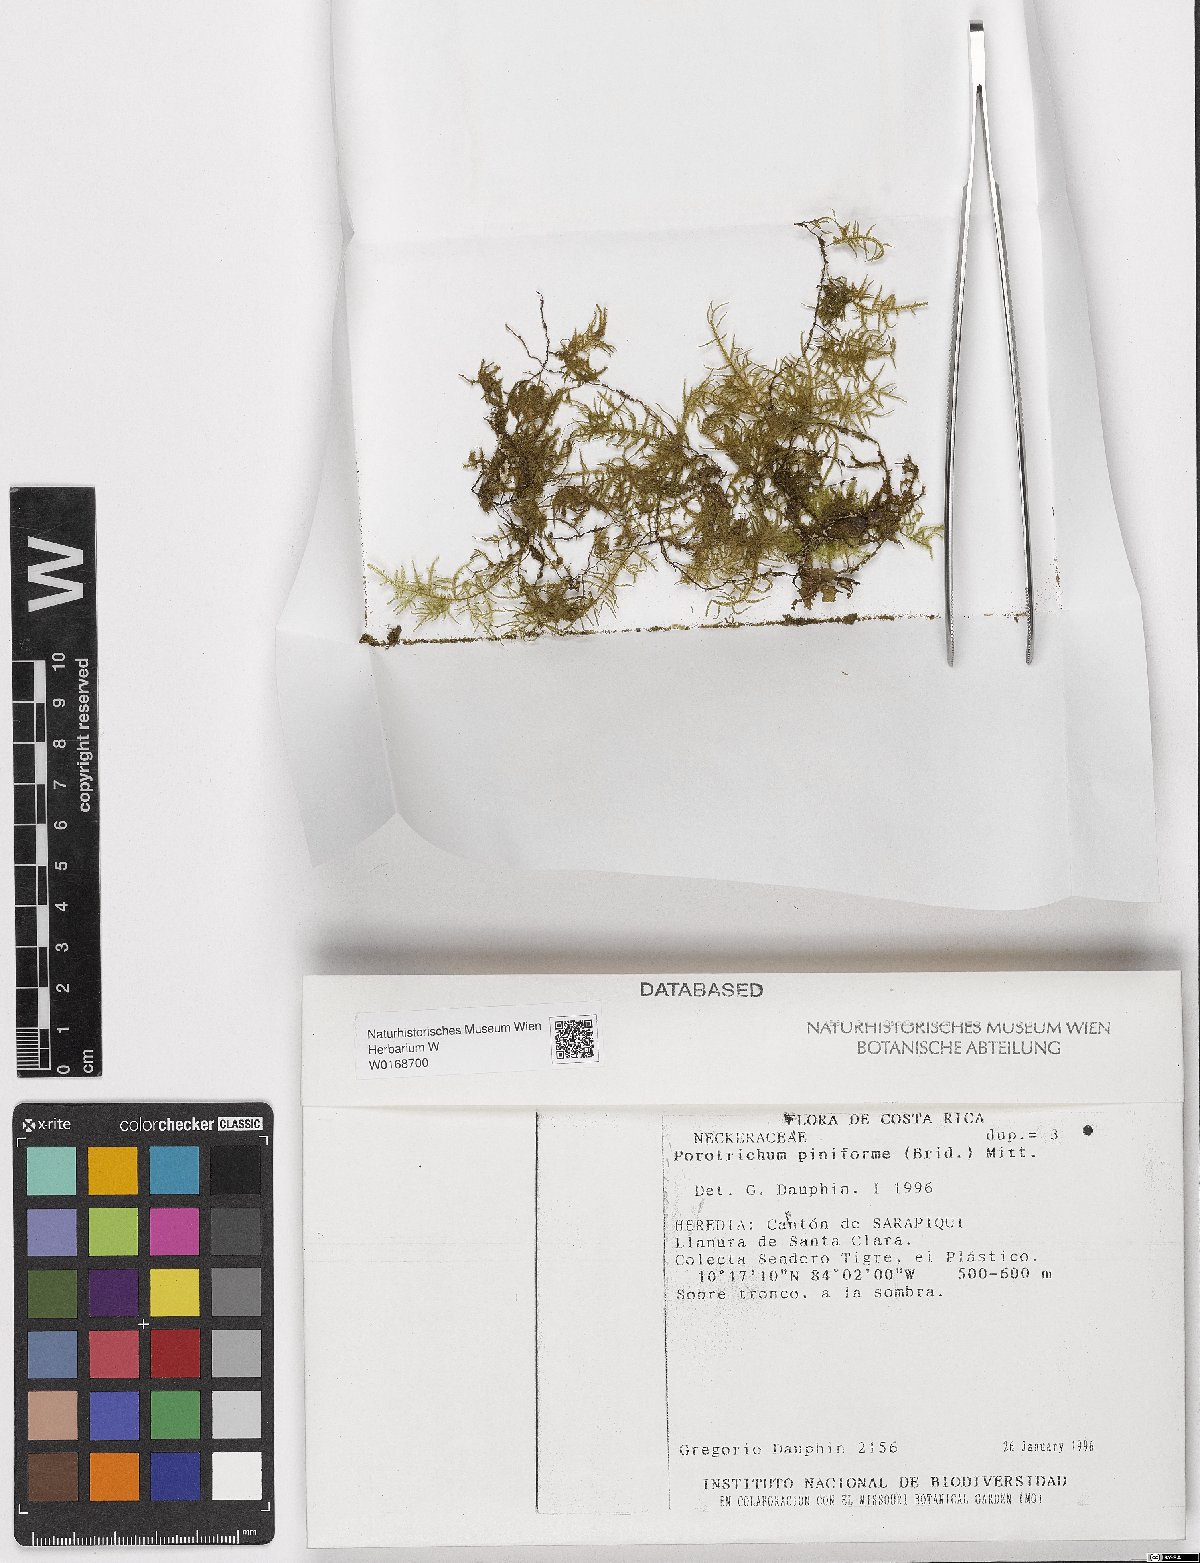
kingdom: Plantae
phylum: Bryophyta
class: Bryopsida
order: Hypnales
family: Orthostichellaceae
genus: Pinnatidendron
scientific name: Pinnatidendron piniforme
